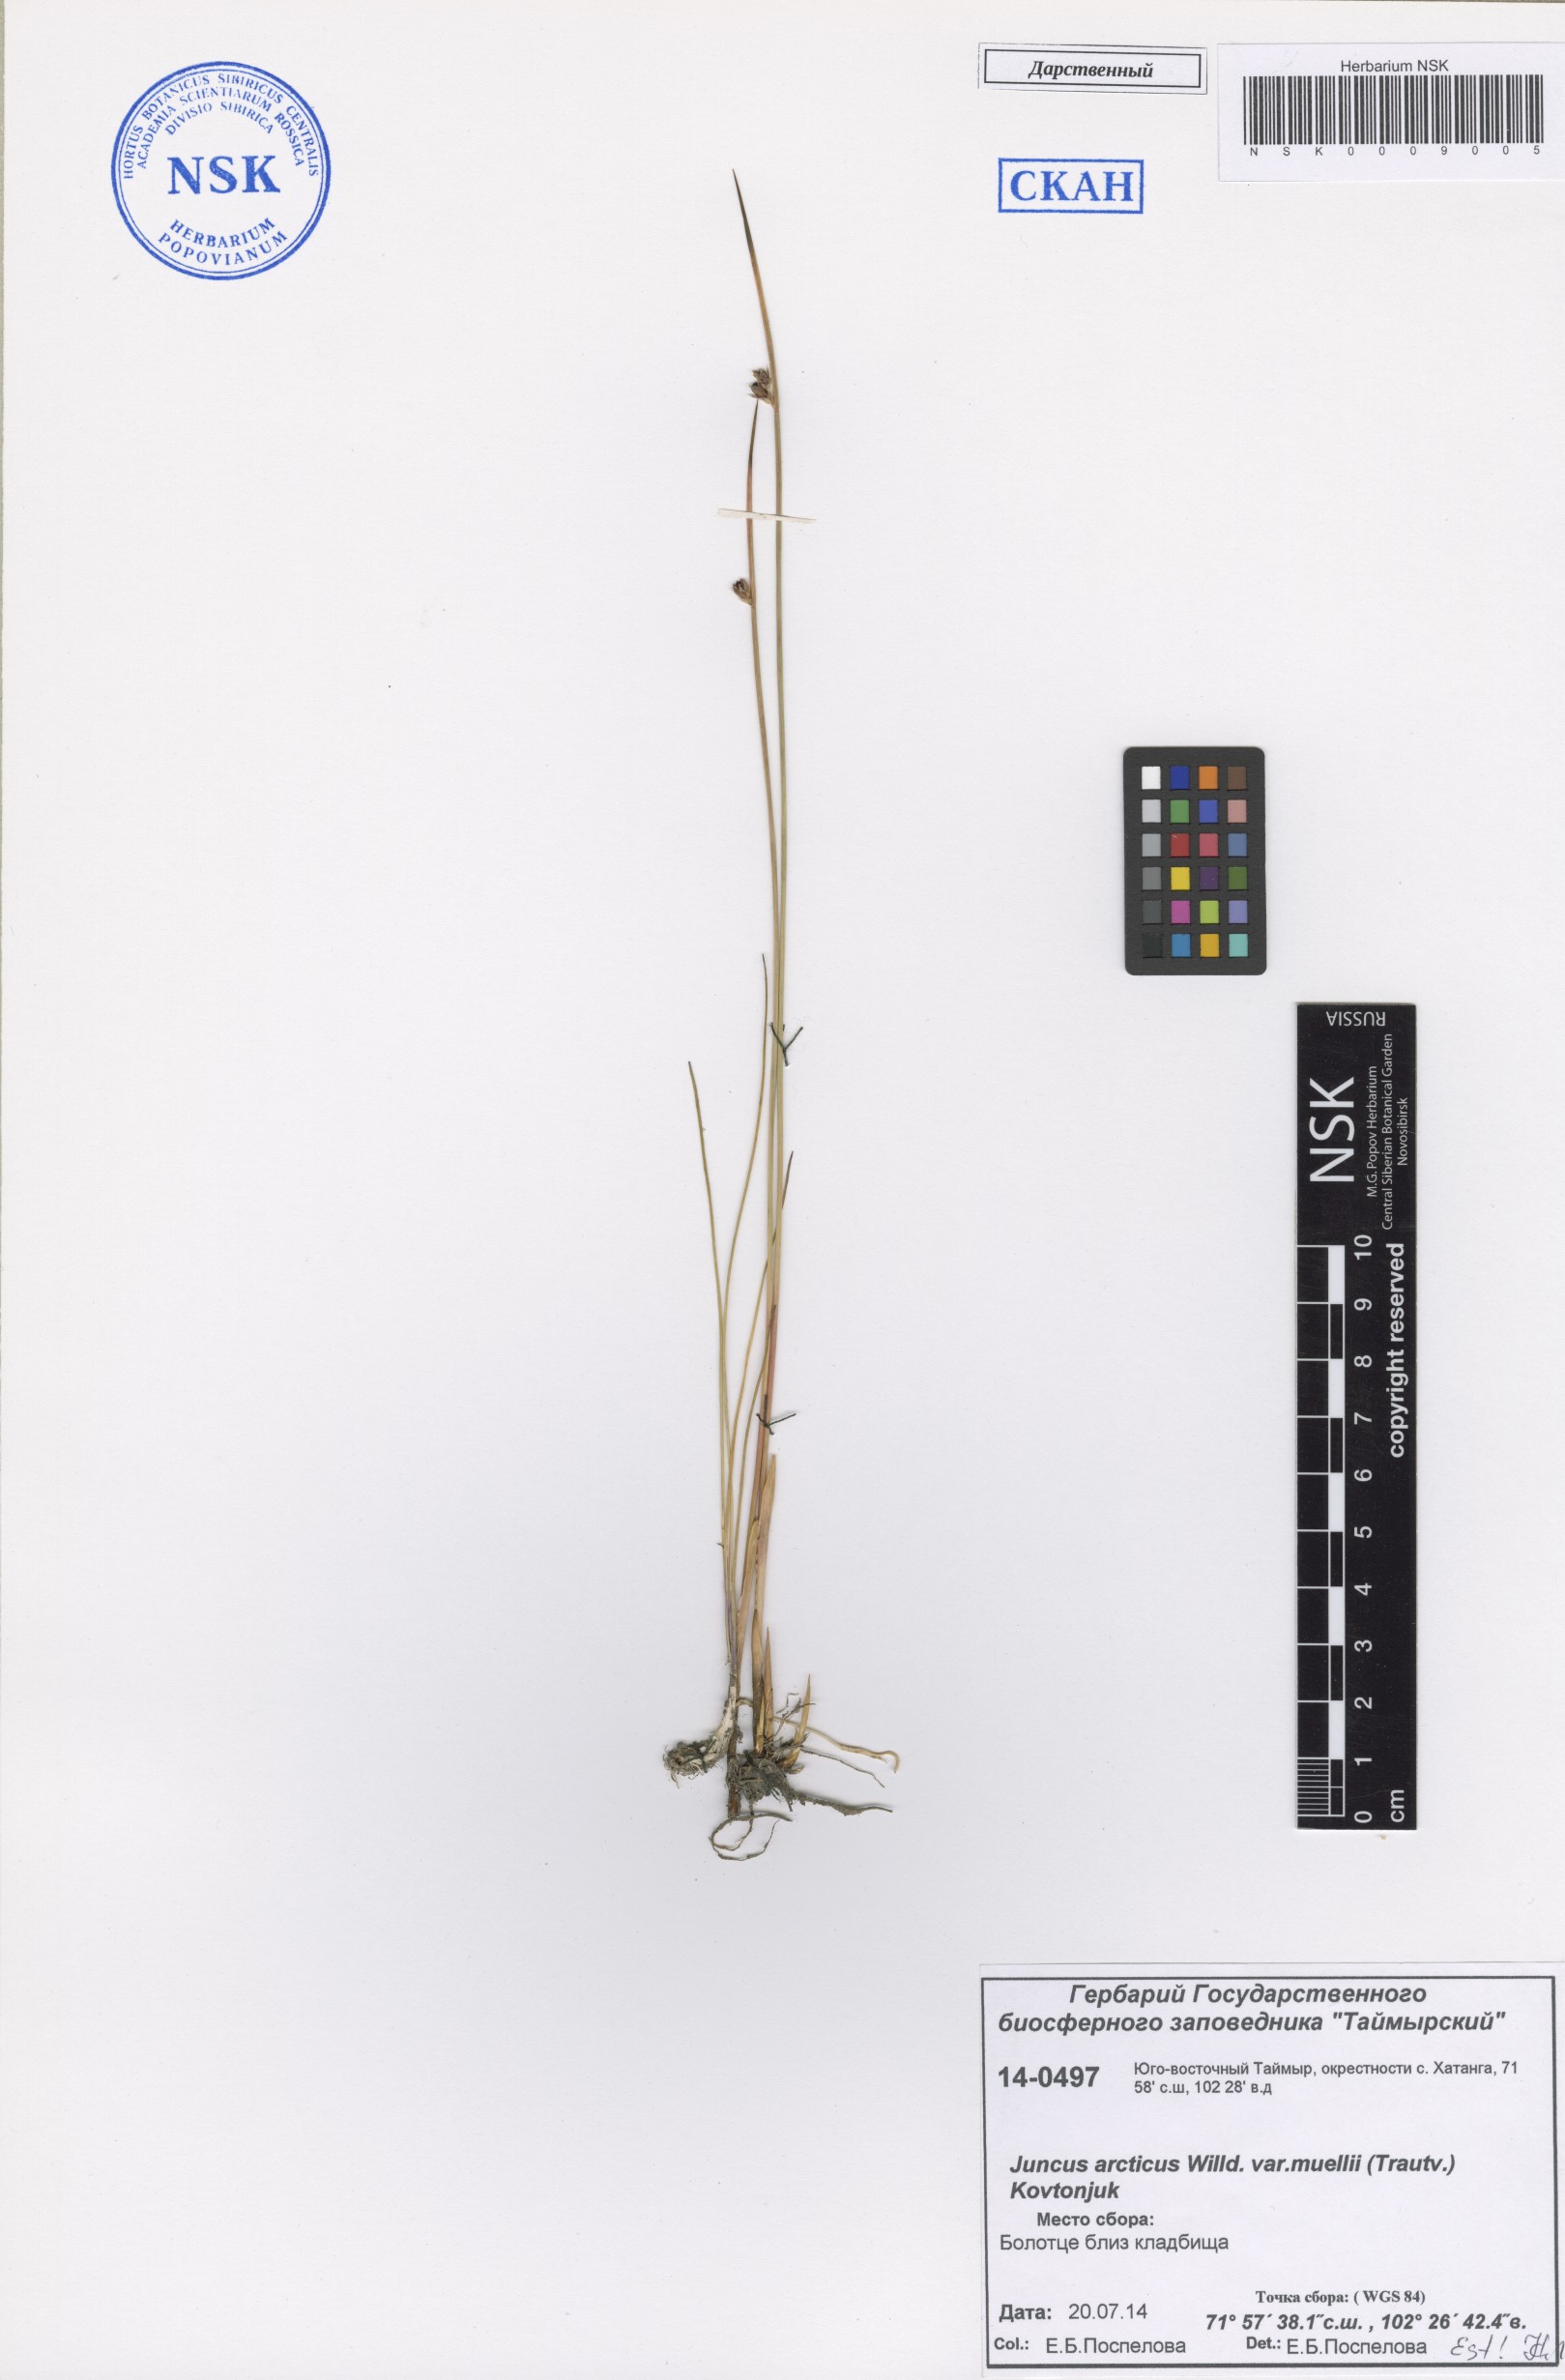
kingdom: Plantae
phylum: Tracheophyta
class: Liliopsida
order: Poales
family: Juncaceae
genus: Juncus
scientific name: Juncus arcticus
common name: Arctic rush
